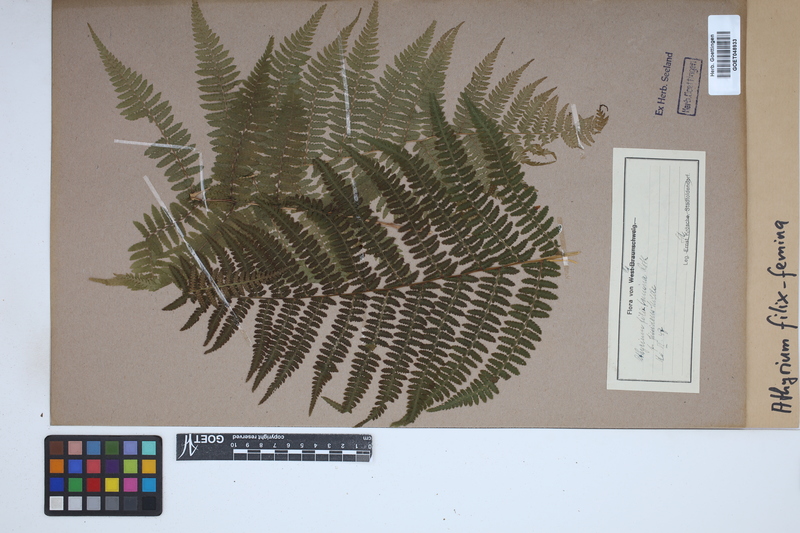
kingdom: Plantae
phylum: Tracheophyta
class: Polypodiopsida
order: Polypodiales
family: Athyriaceae
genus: Athyrium
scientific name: Athyrium filix-femina
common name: Lady fern
